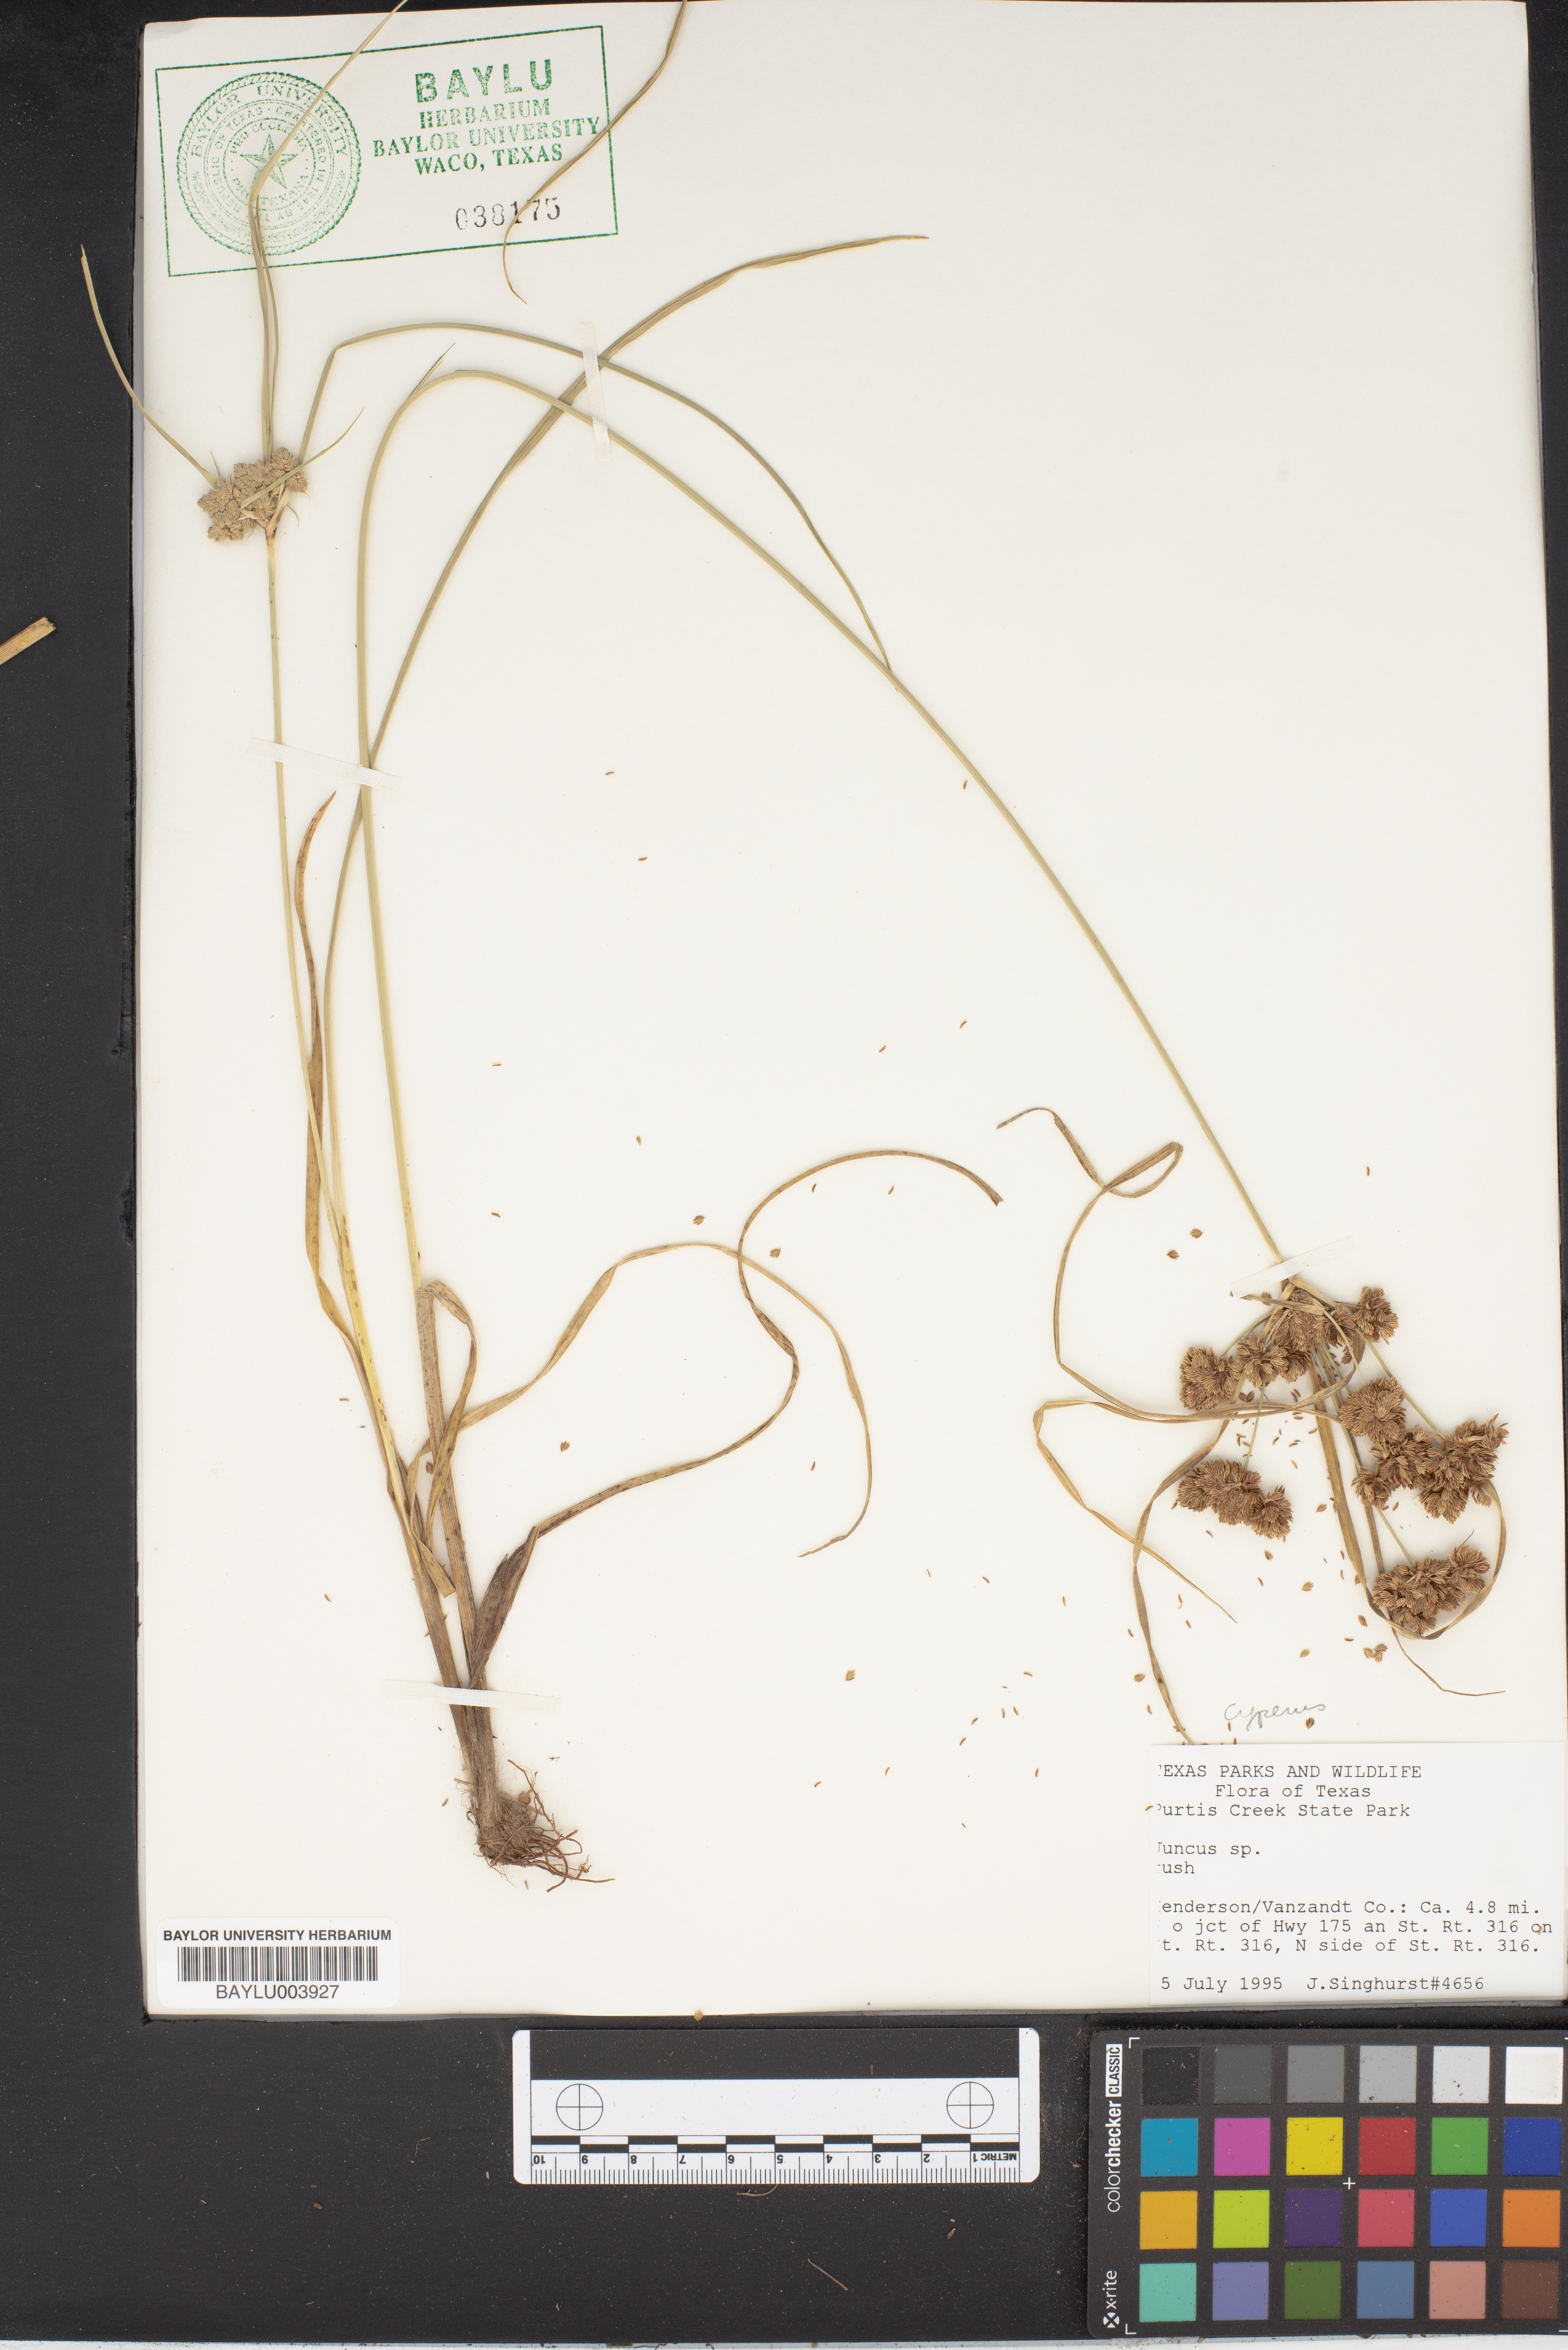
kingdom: Plantae
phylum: Tracheophyta
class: Liliopsida
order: Poales
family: Juncaceae
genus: Juncus
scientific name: Juncus
